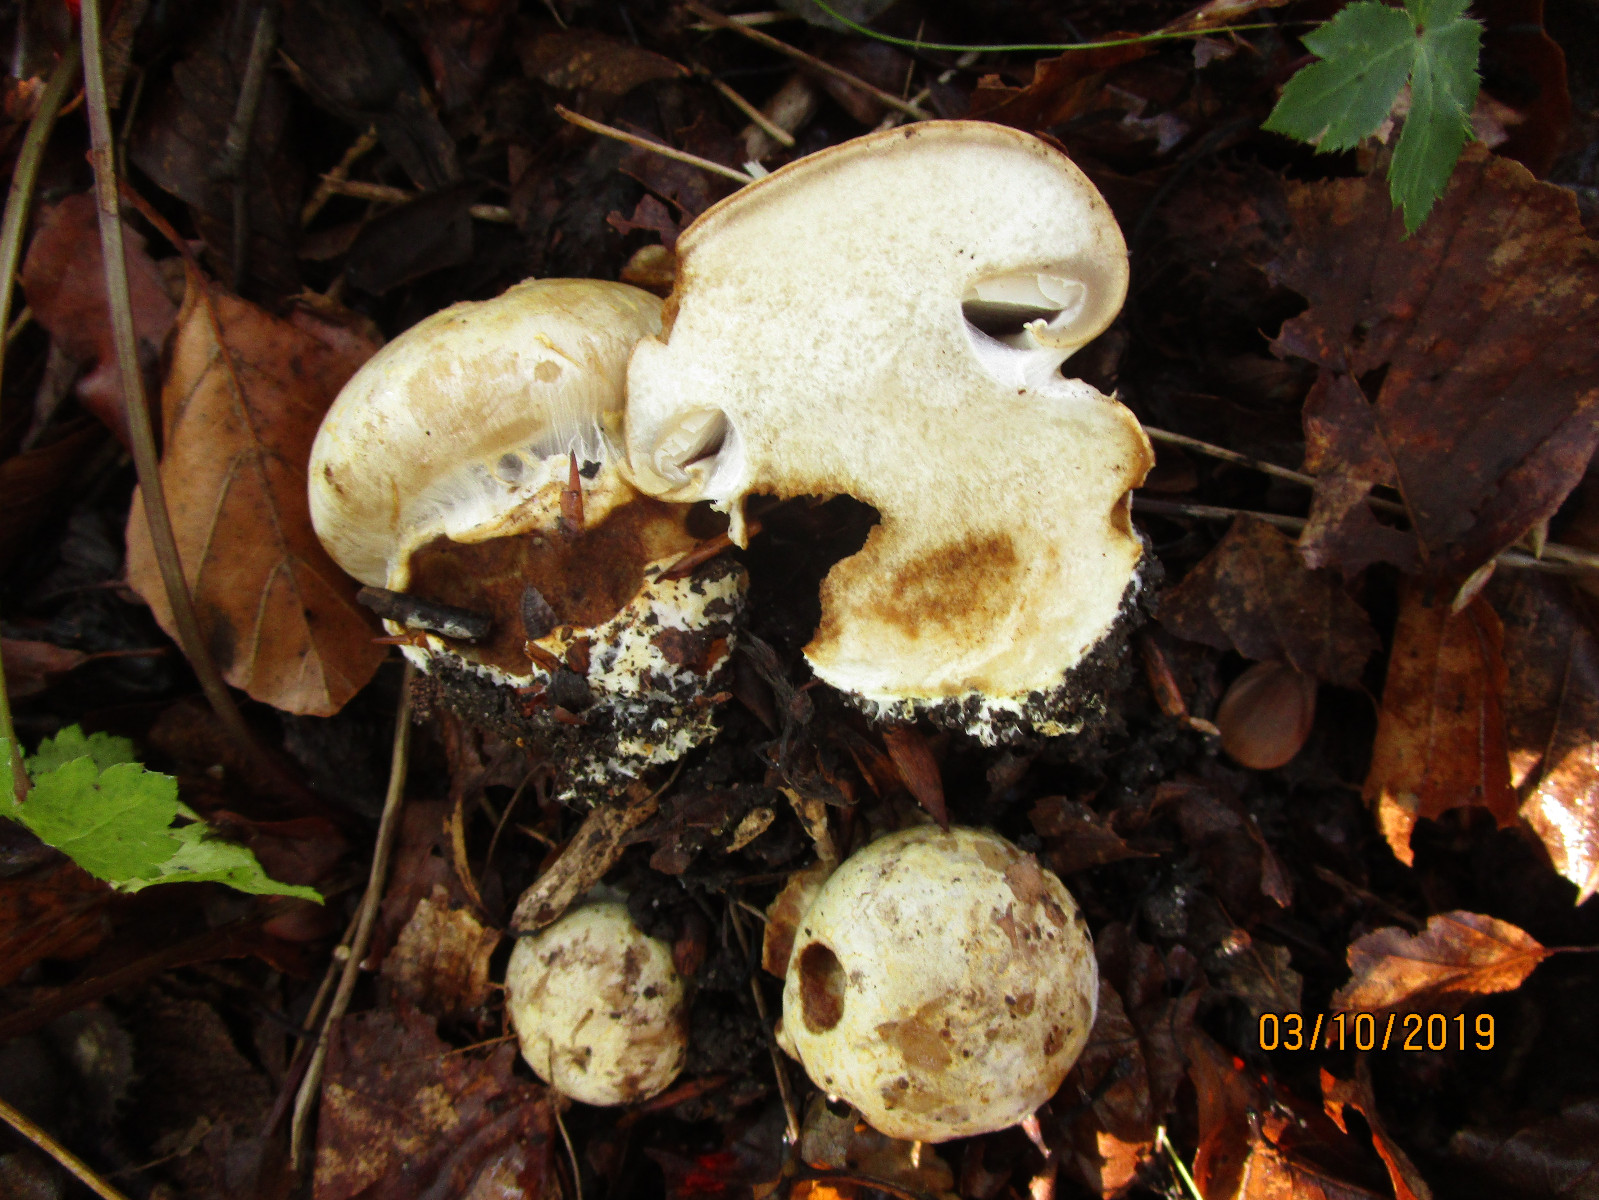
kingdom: Fungi
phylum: Basidiomycota
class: Agaricomycetes
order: Agaricales
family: Cortinariaceae
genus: Cortinarius
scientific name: Cortinarius foetens
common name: stribet slørhat
